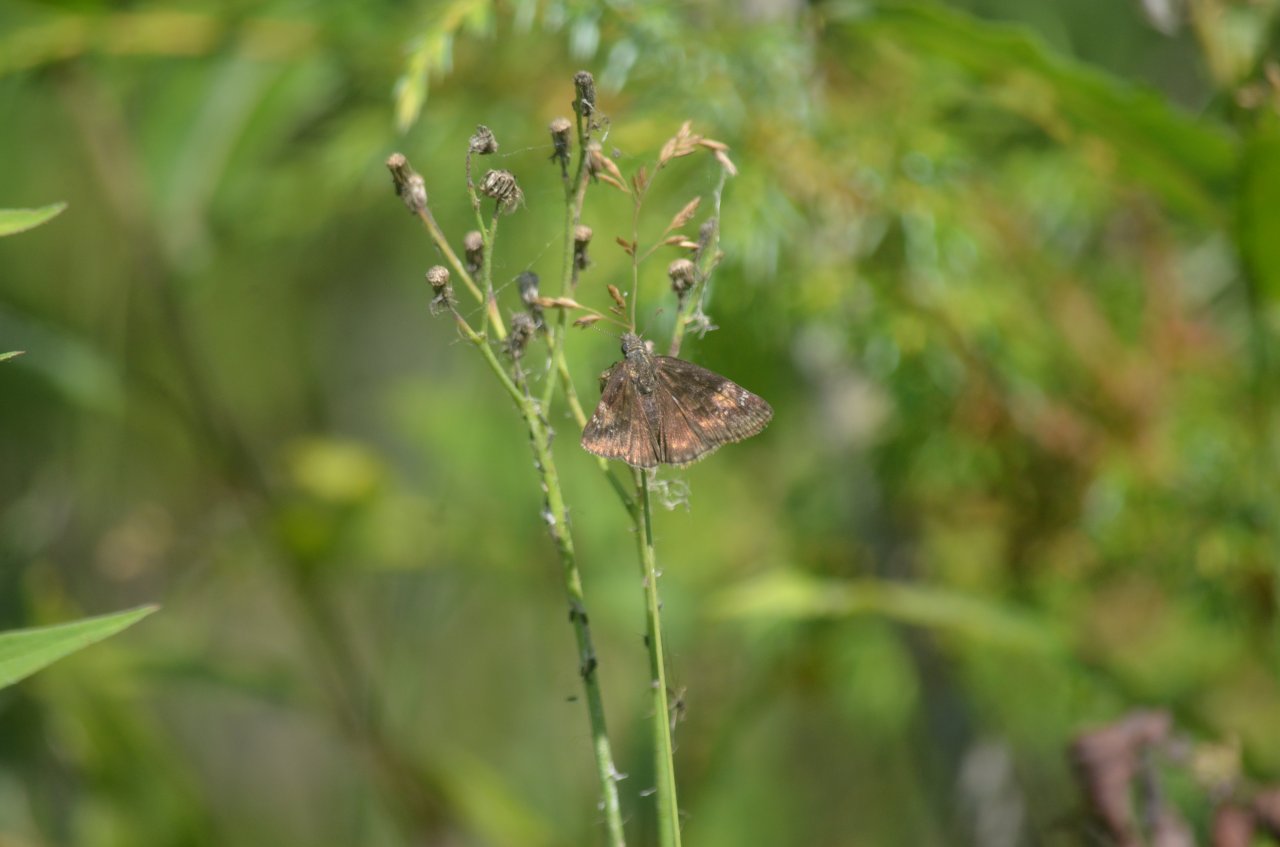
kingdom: Animalia
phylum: Arthropoda
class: Insecta
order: Lepidoptera
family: Hesperiidae
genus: Erynnis
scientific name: Erynnis
